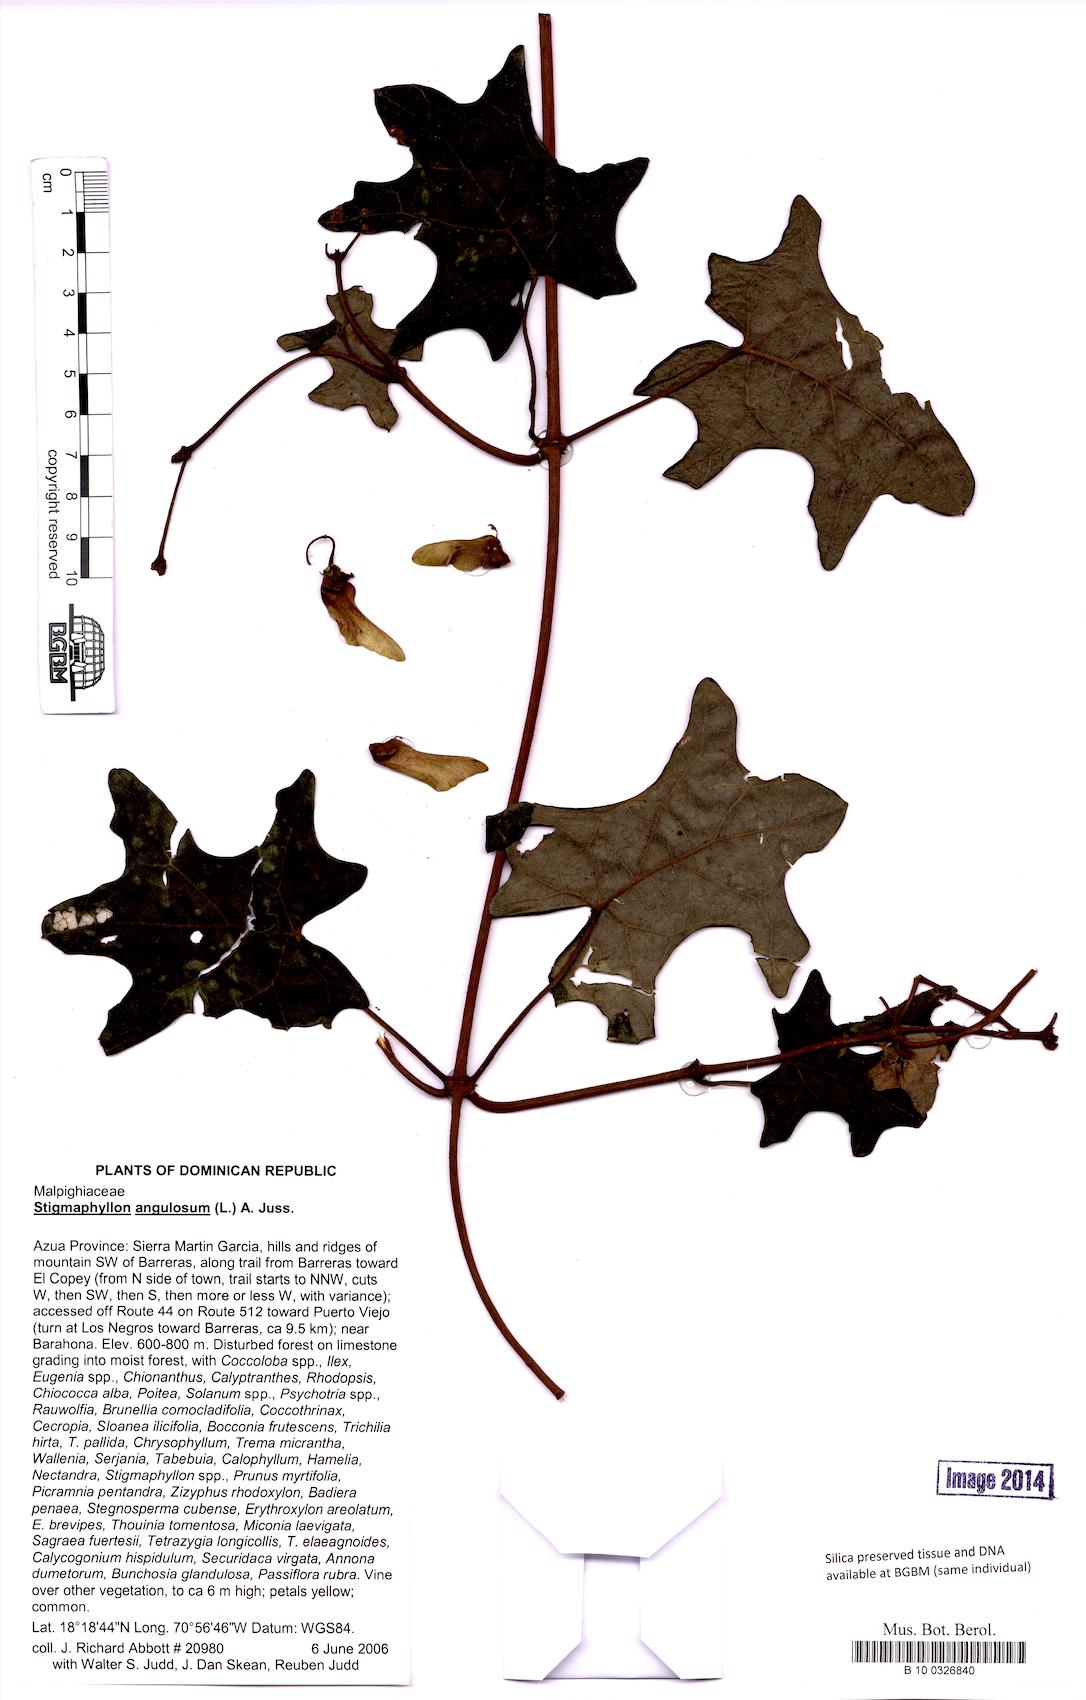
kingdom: Plantae
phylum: Tracheophyta
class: Magnoliopsida
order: Malpighiales
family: Malpighiaceae
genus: Stigmaphyllon
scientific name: Stigmaphyllon angulosum
